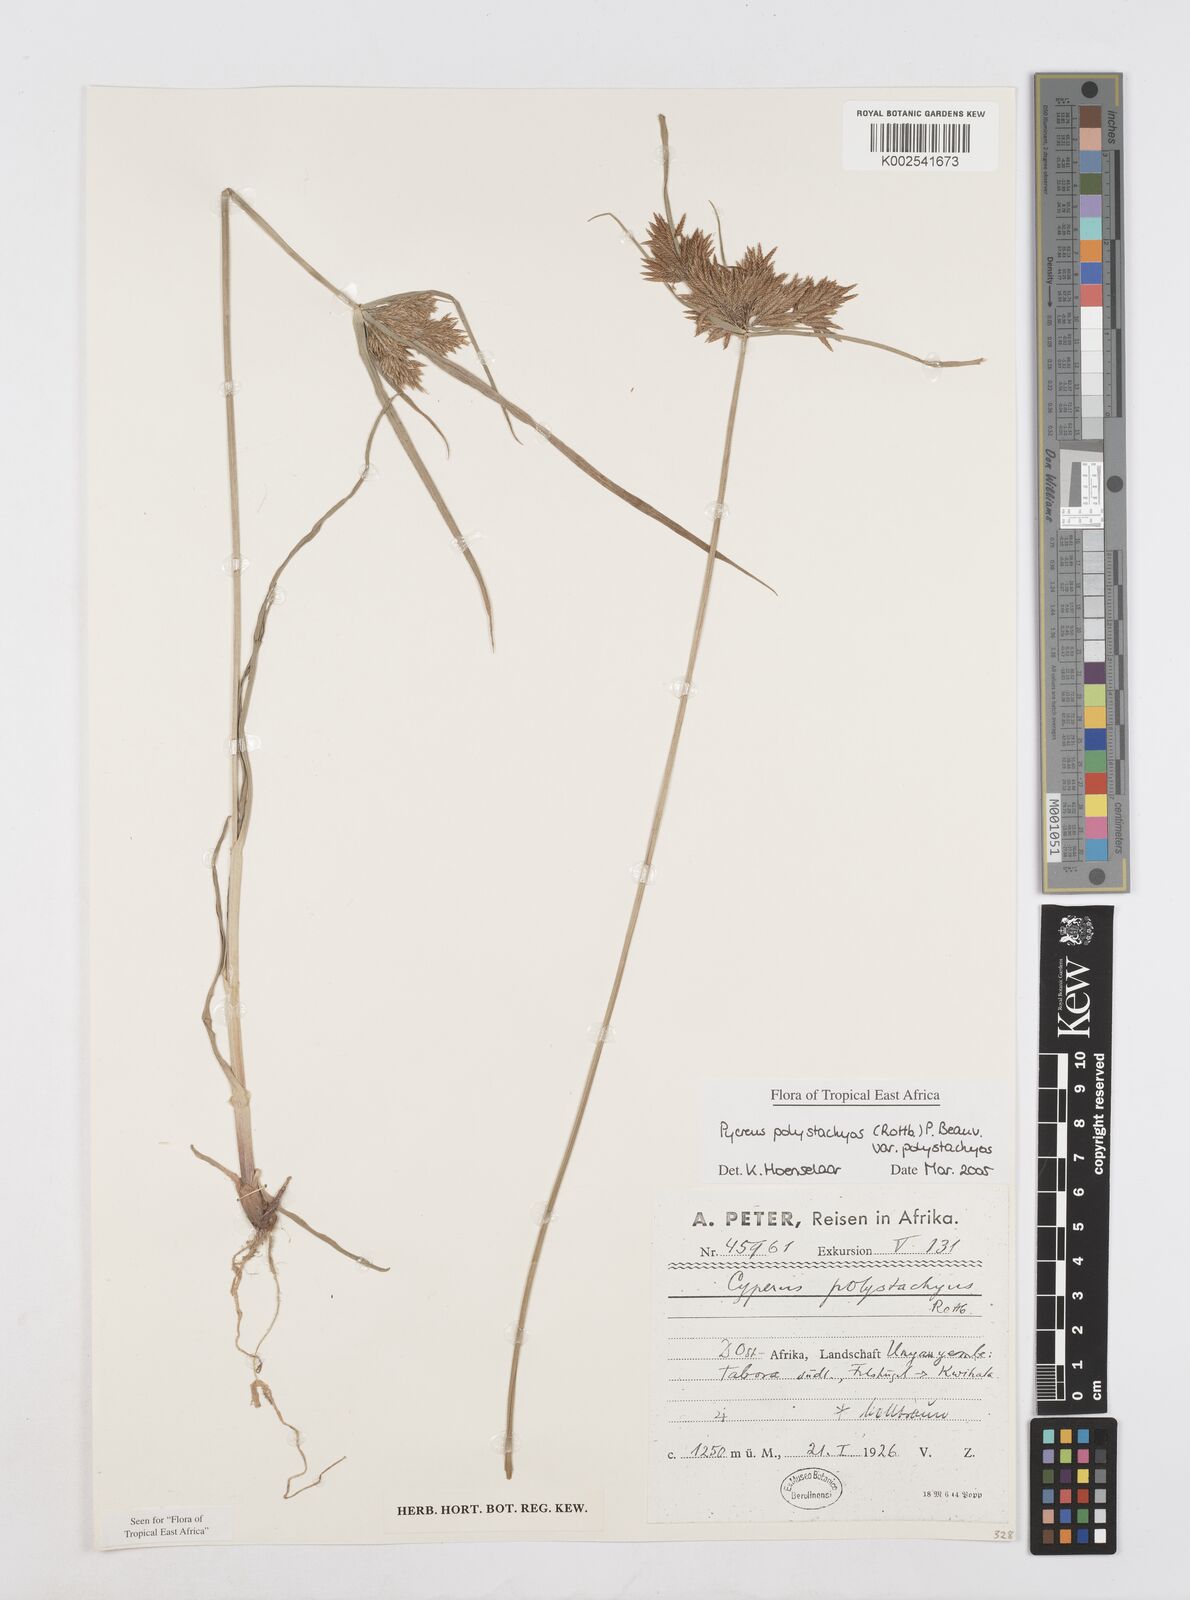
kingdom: Plantae
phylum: Tracheophyta
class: Liliopsida
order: Poales
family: Cyperaceae
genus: Cyperus
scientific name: Cyperus polystachyos
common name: Bunchy flat sedge
